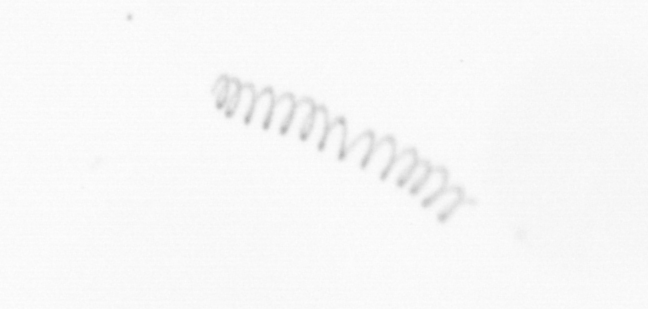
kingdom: Chromista
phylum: Ochrophyta
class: Bacillariophyceae
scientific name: Bacillariophyceae
